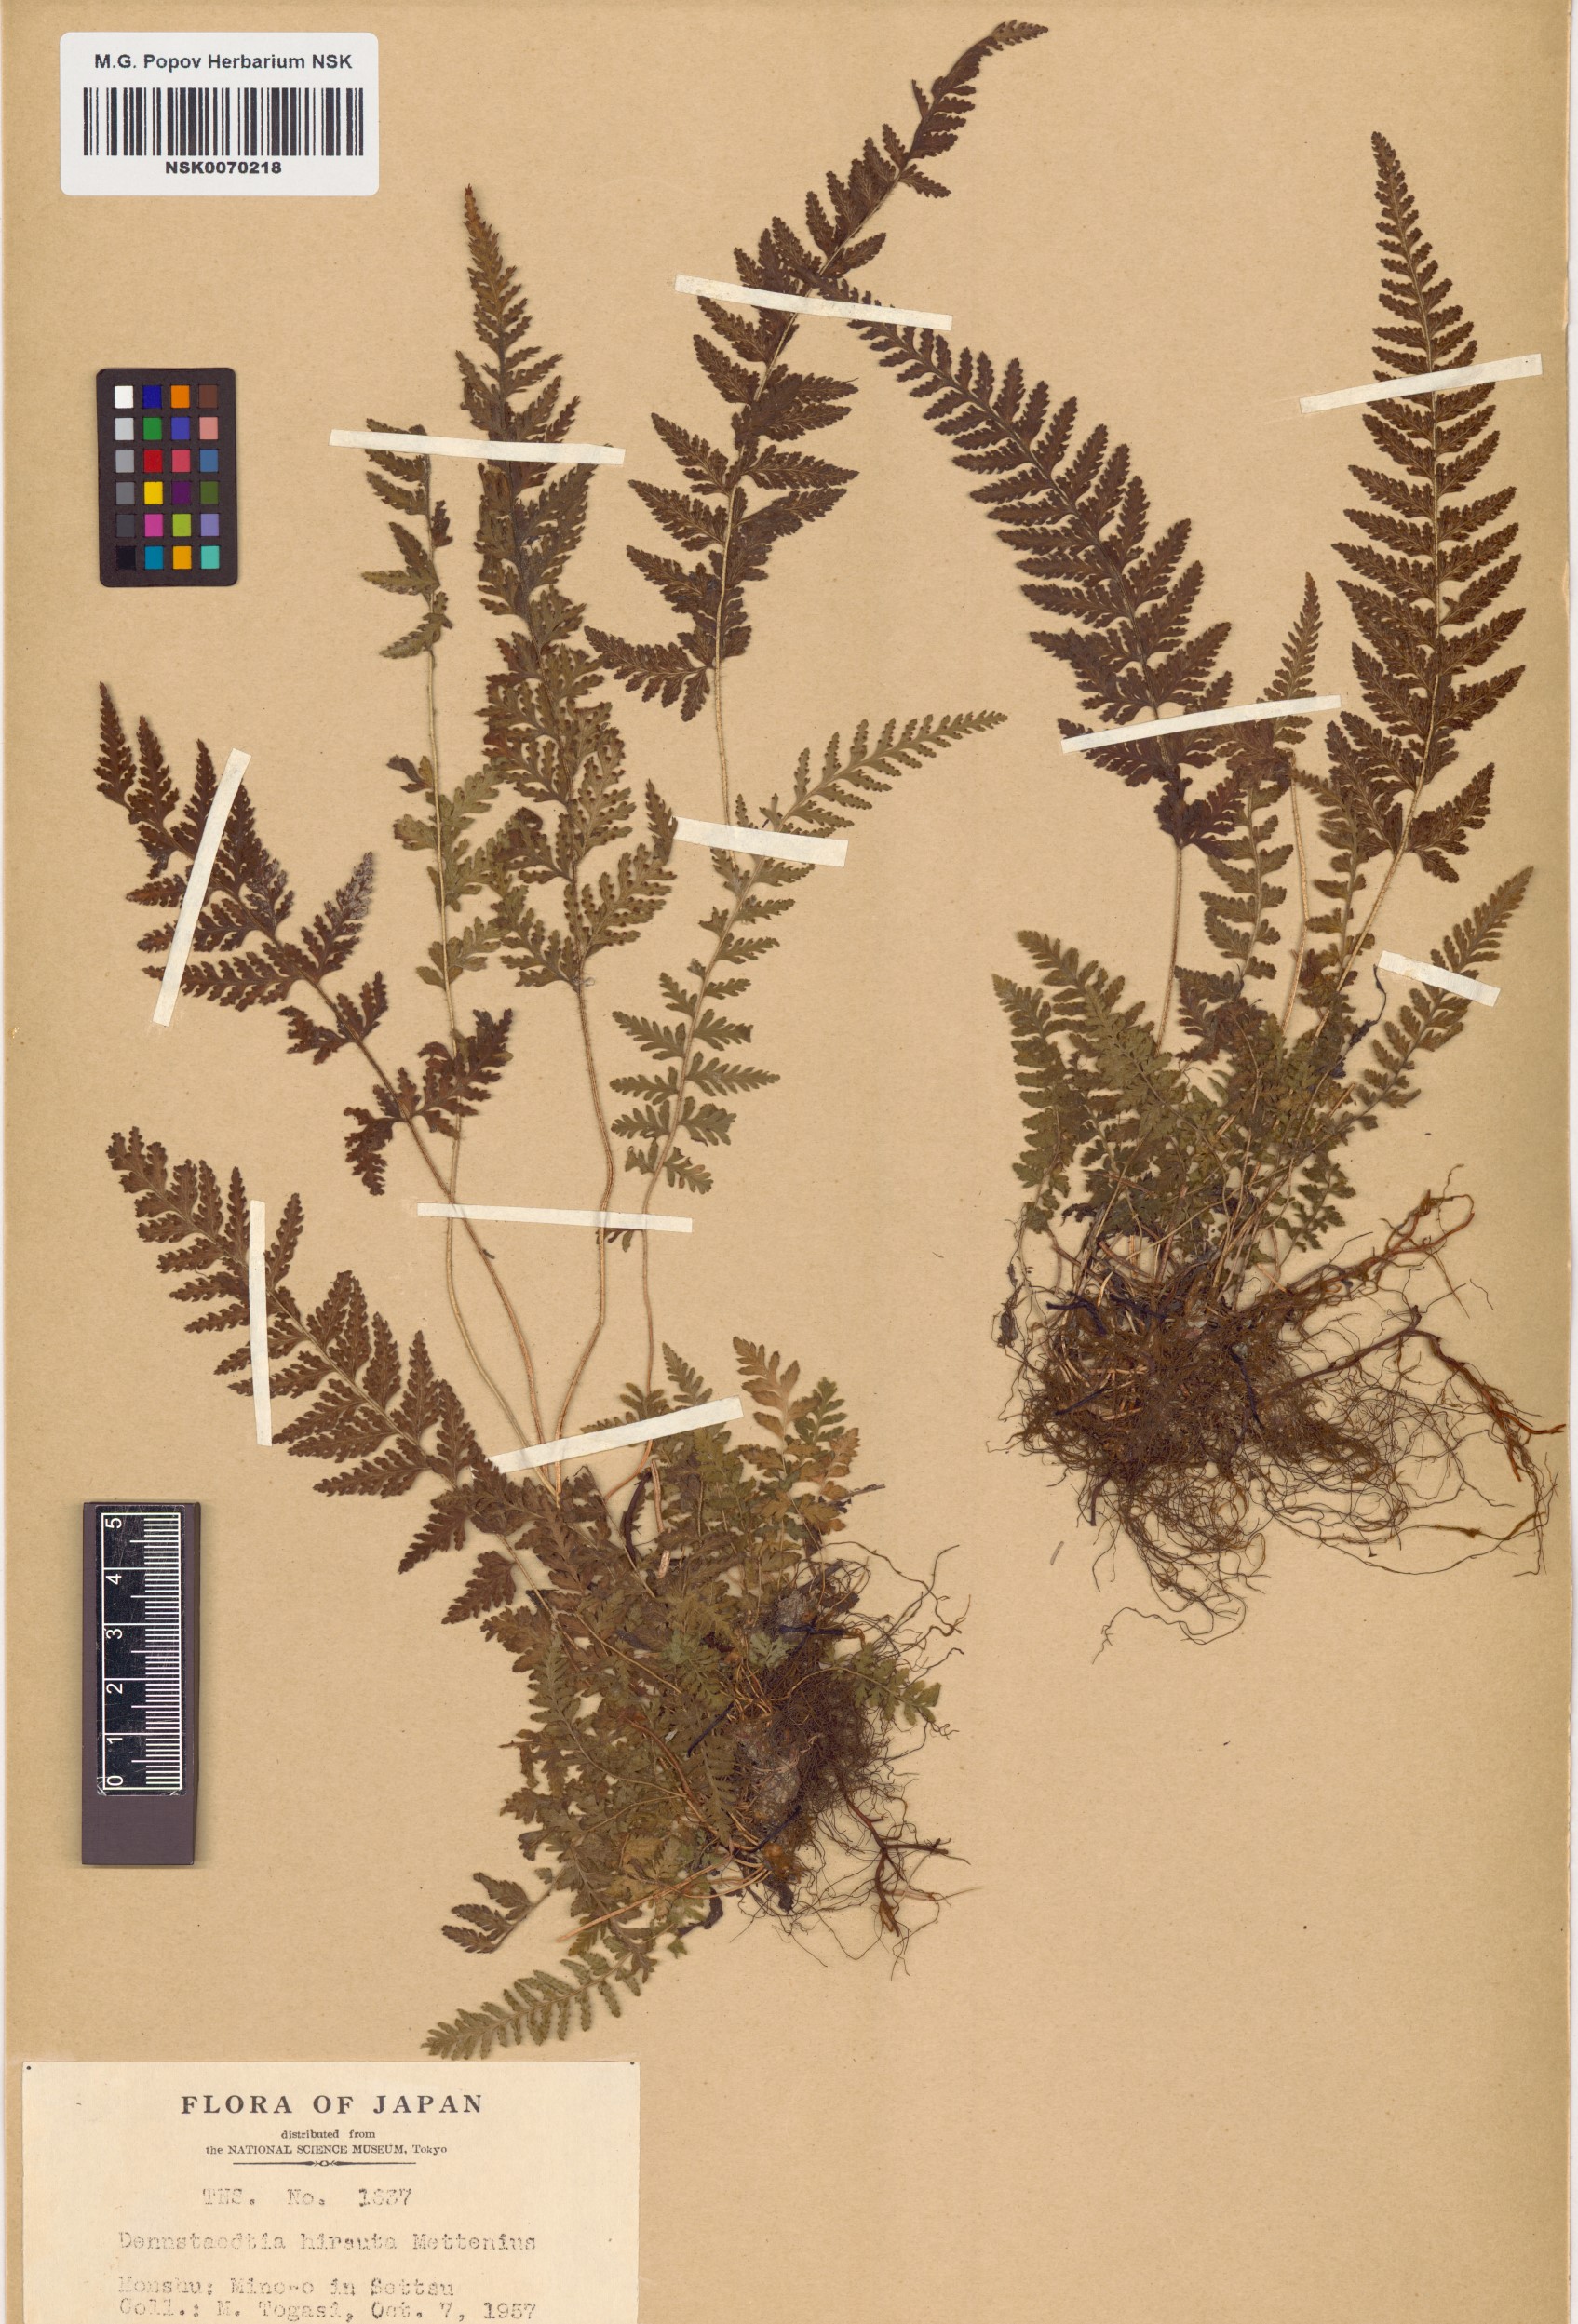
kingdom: Plantae
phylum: Tracheophyta
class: Polypodiopsida
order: Polypodiales
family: Dennstaedtiaceae
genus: Sitobolium
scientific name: Sitobolium hirsutum
